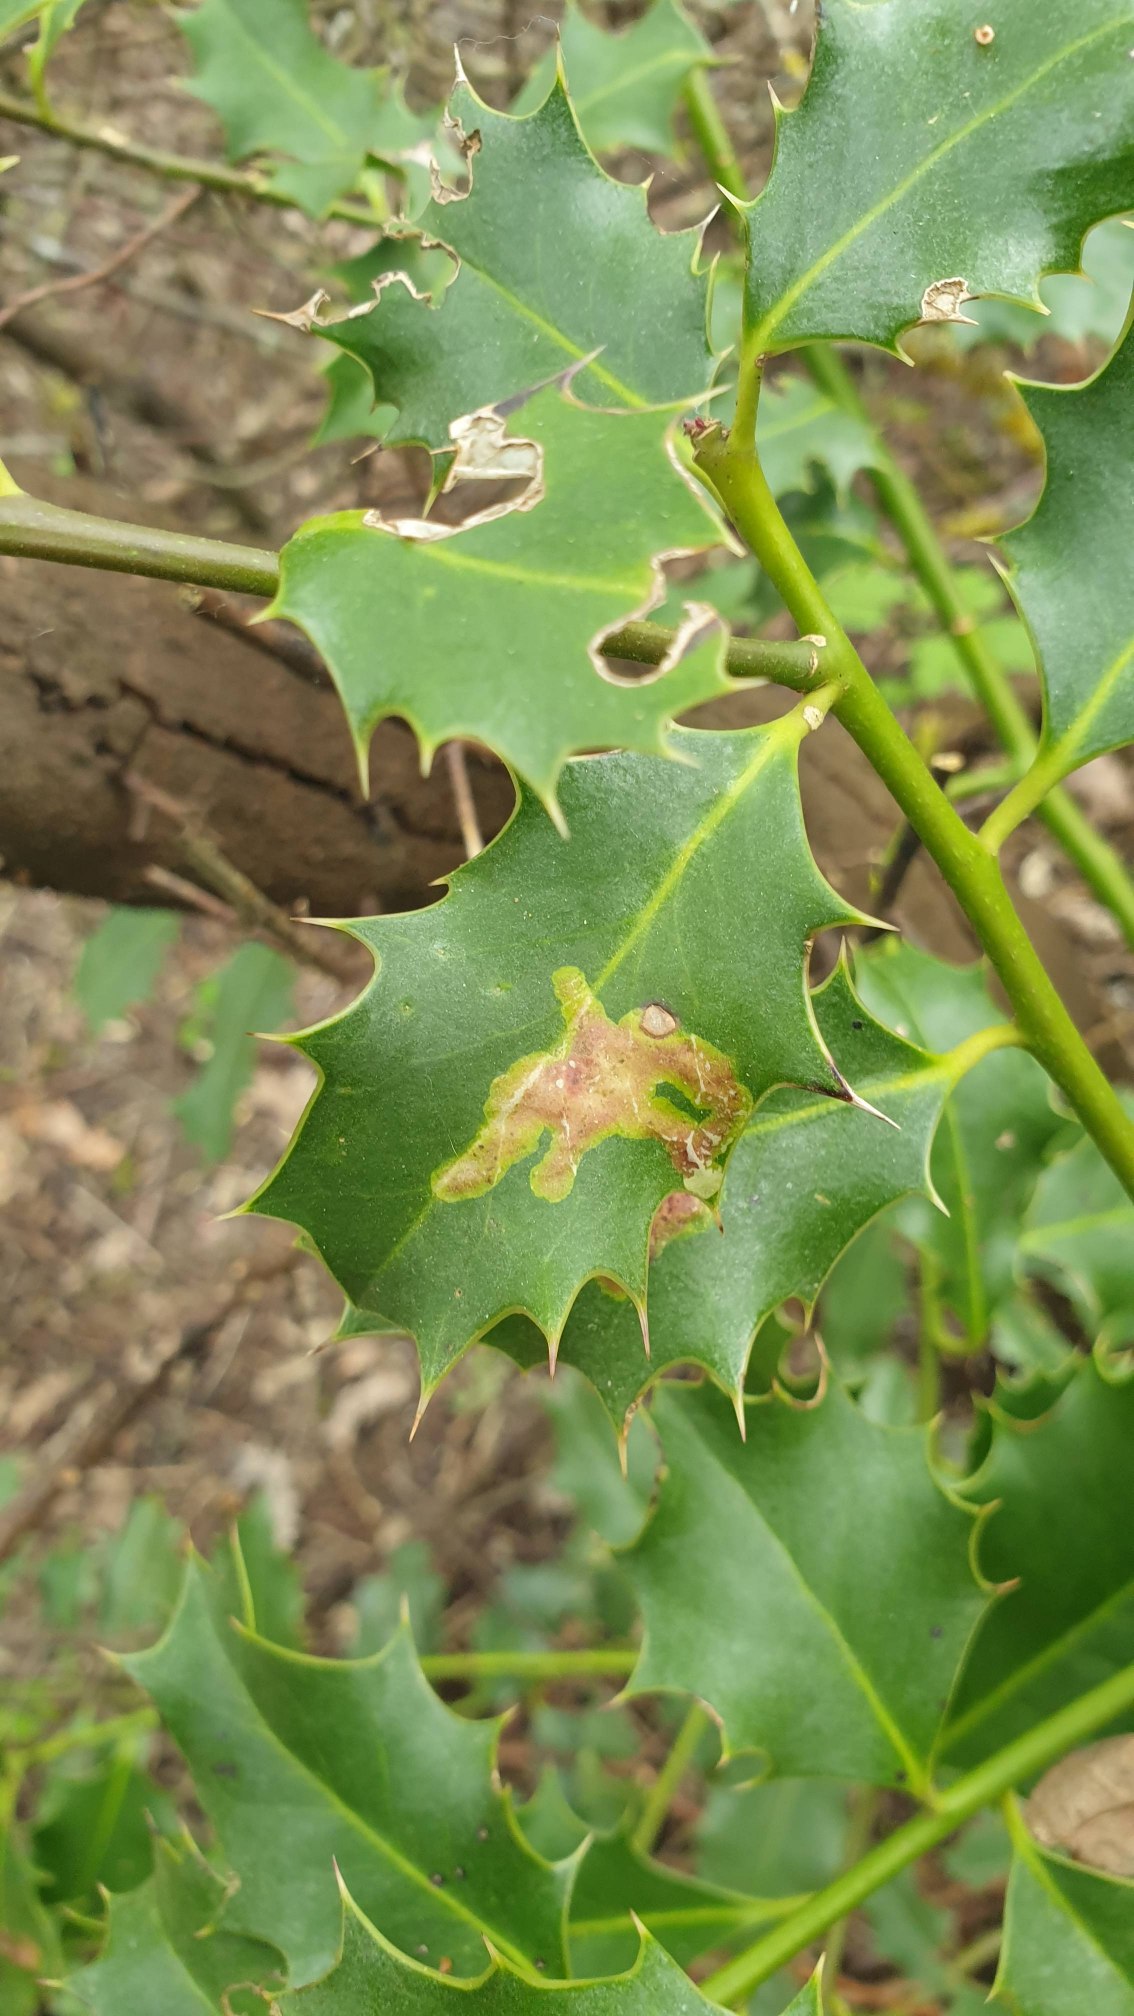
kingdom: Animalia
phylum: Arthropoda
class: Insecta
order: Diptera
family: Agromyzidae
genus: Phytomyza
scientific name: Phytomyza ilicis
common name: Kristtornminérflue
